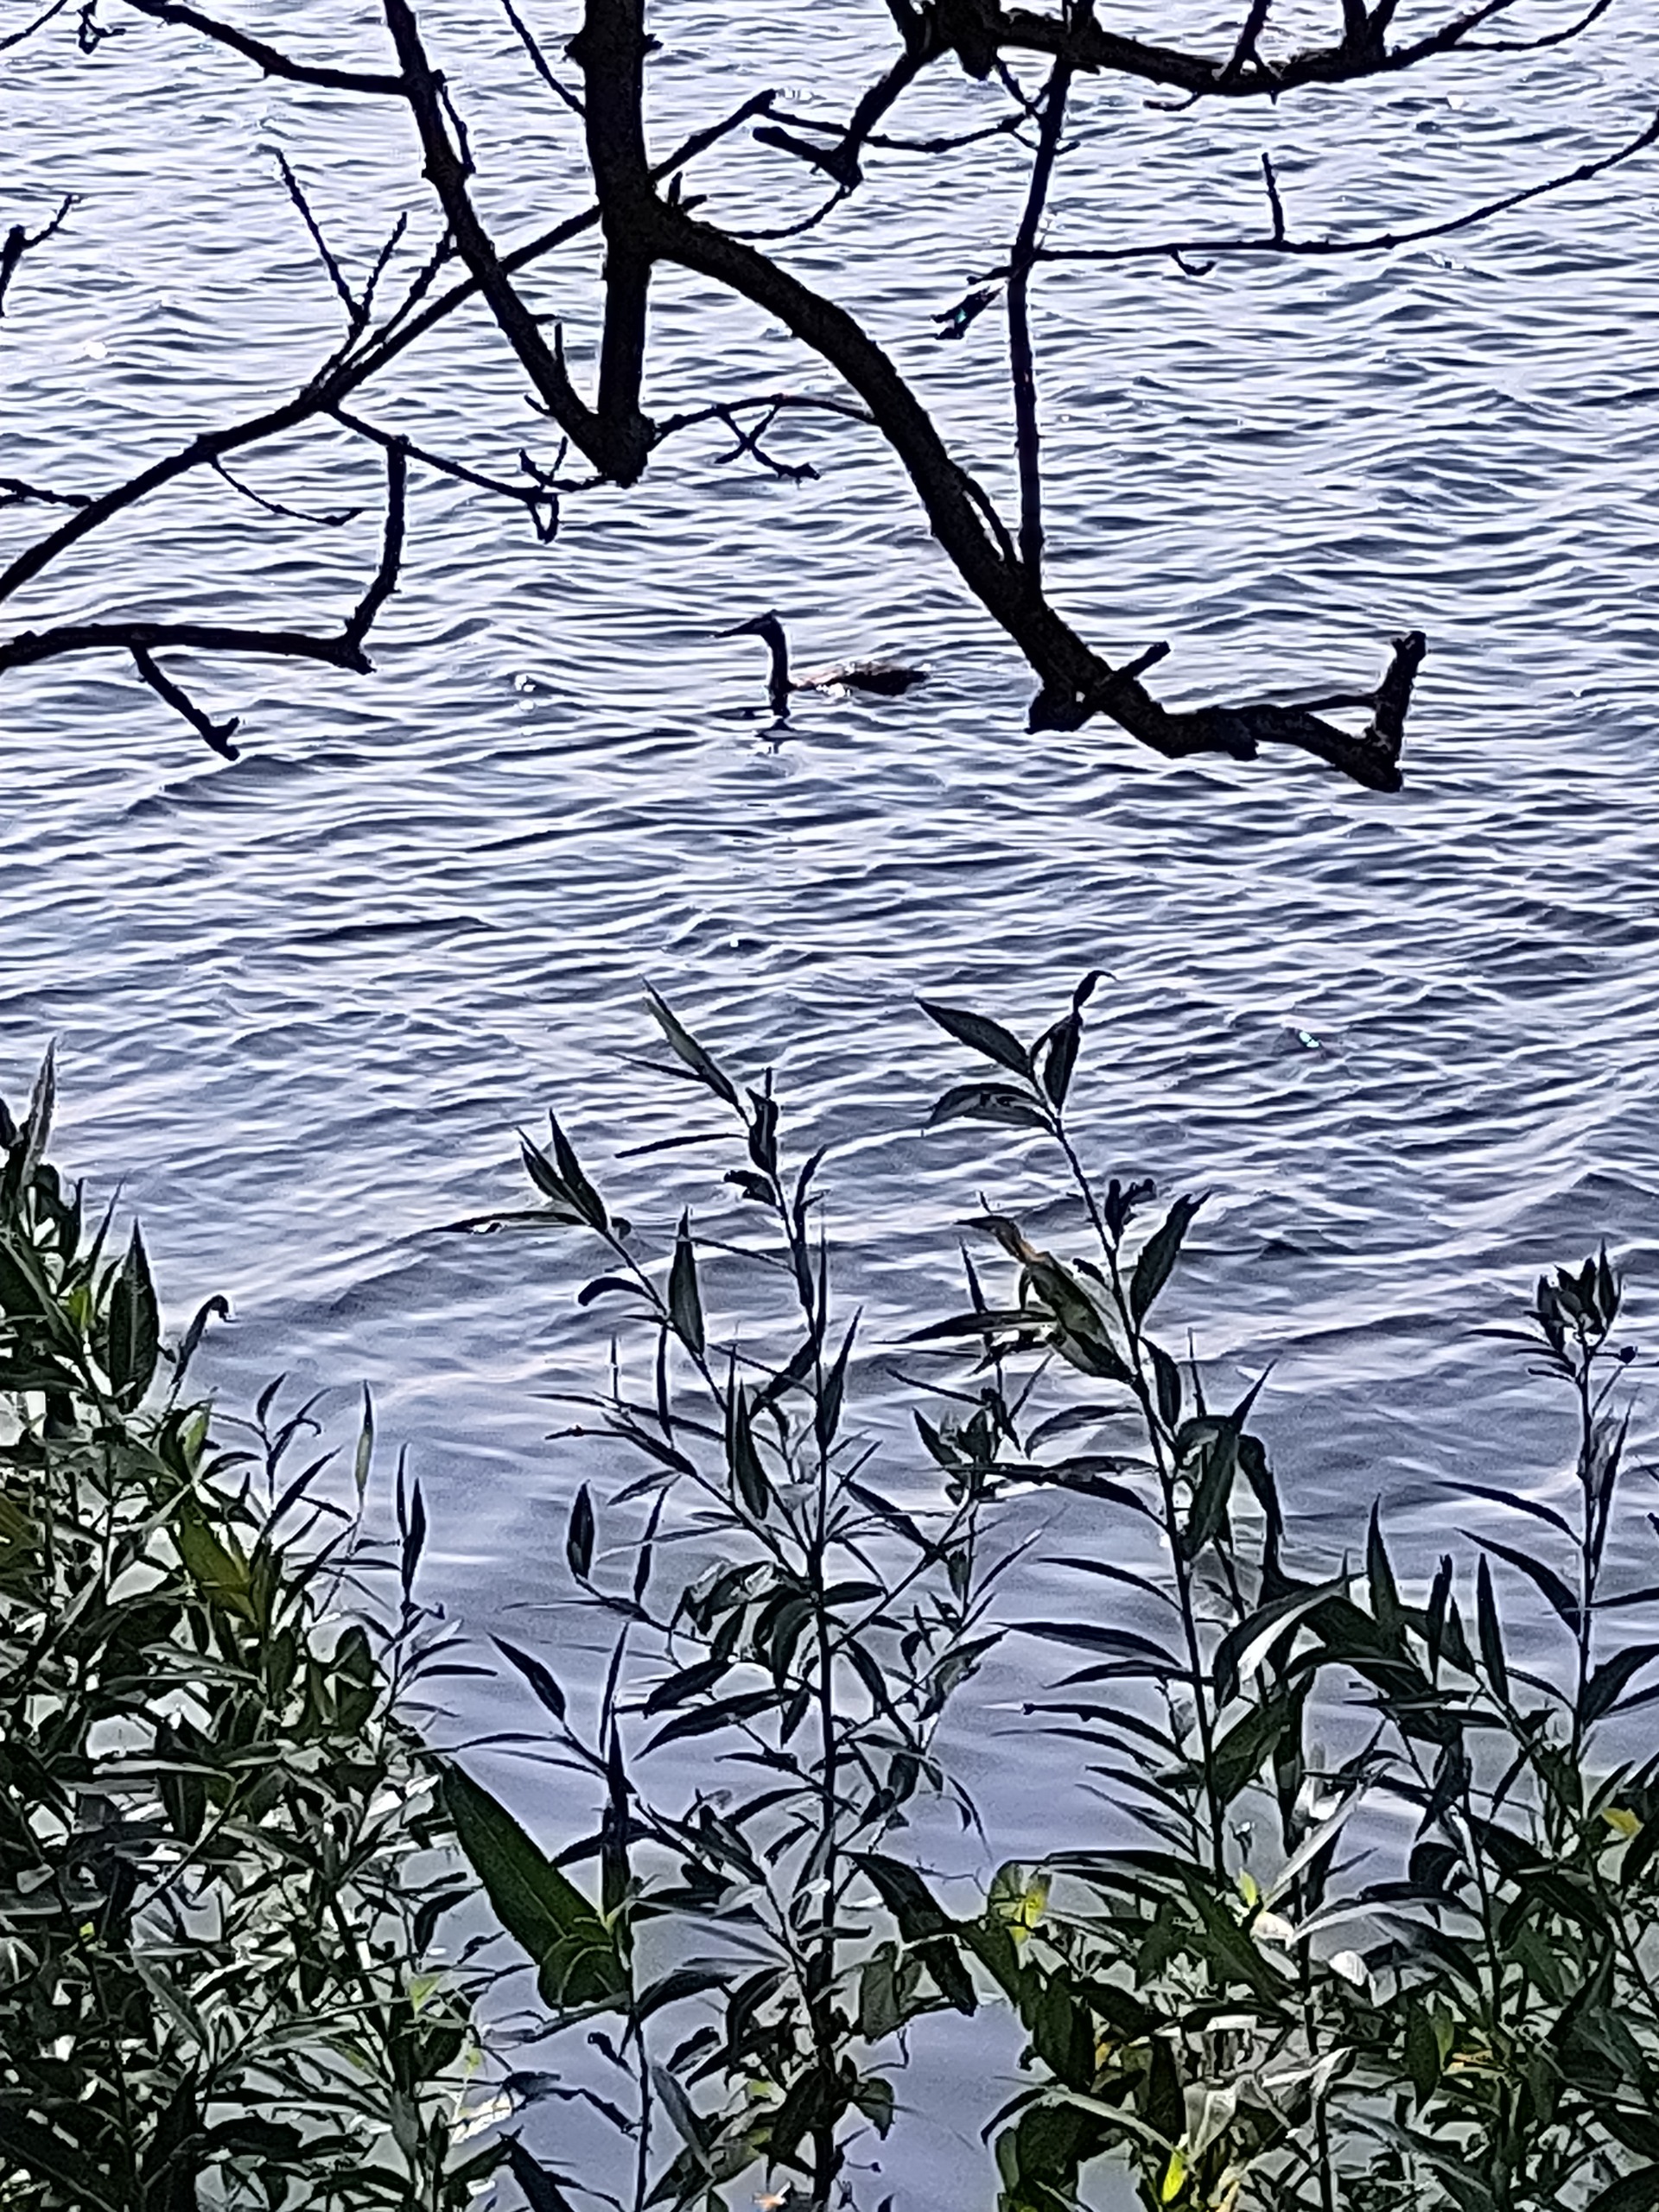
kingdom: Animalia
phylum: Chordata
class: Aves
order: Podicipediformes
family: Podicipedidae
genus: Podiceps
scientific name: Podiceps cristatus
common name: Toppet lappedykker
